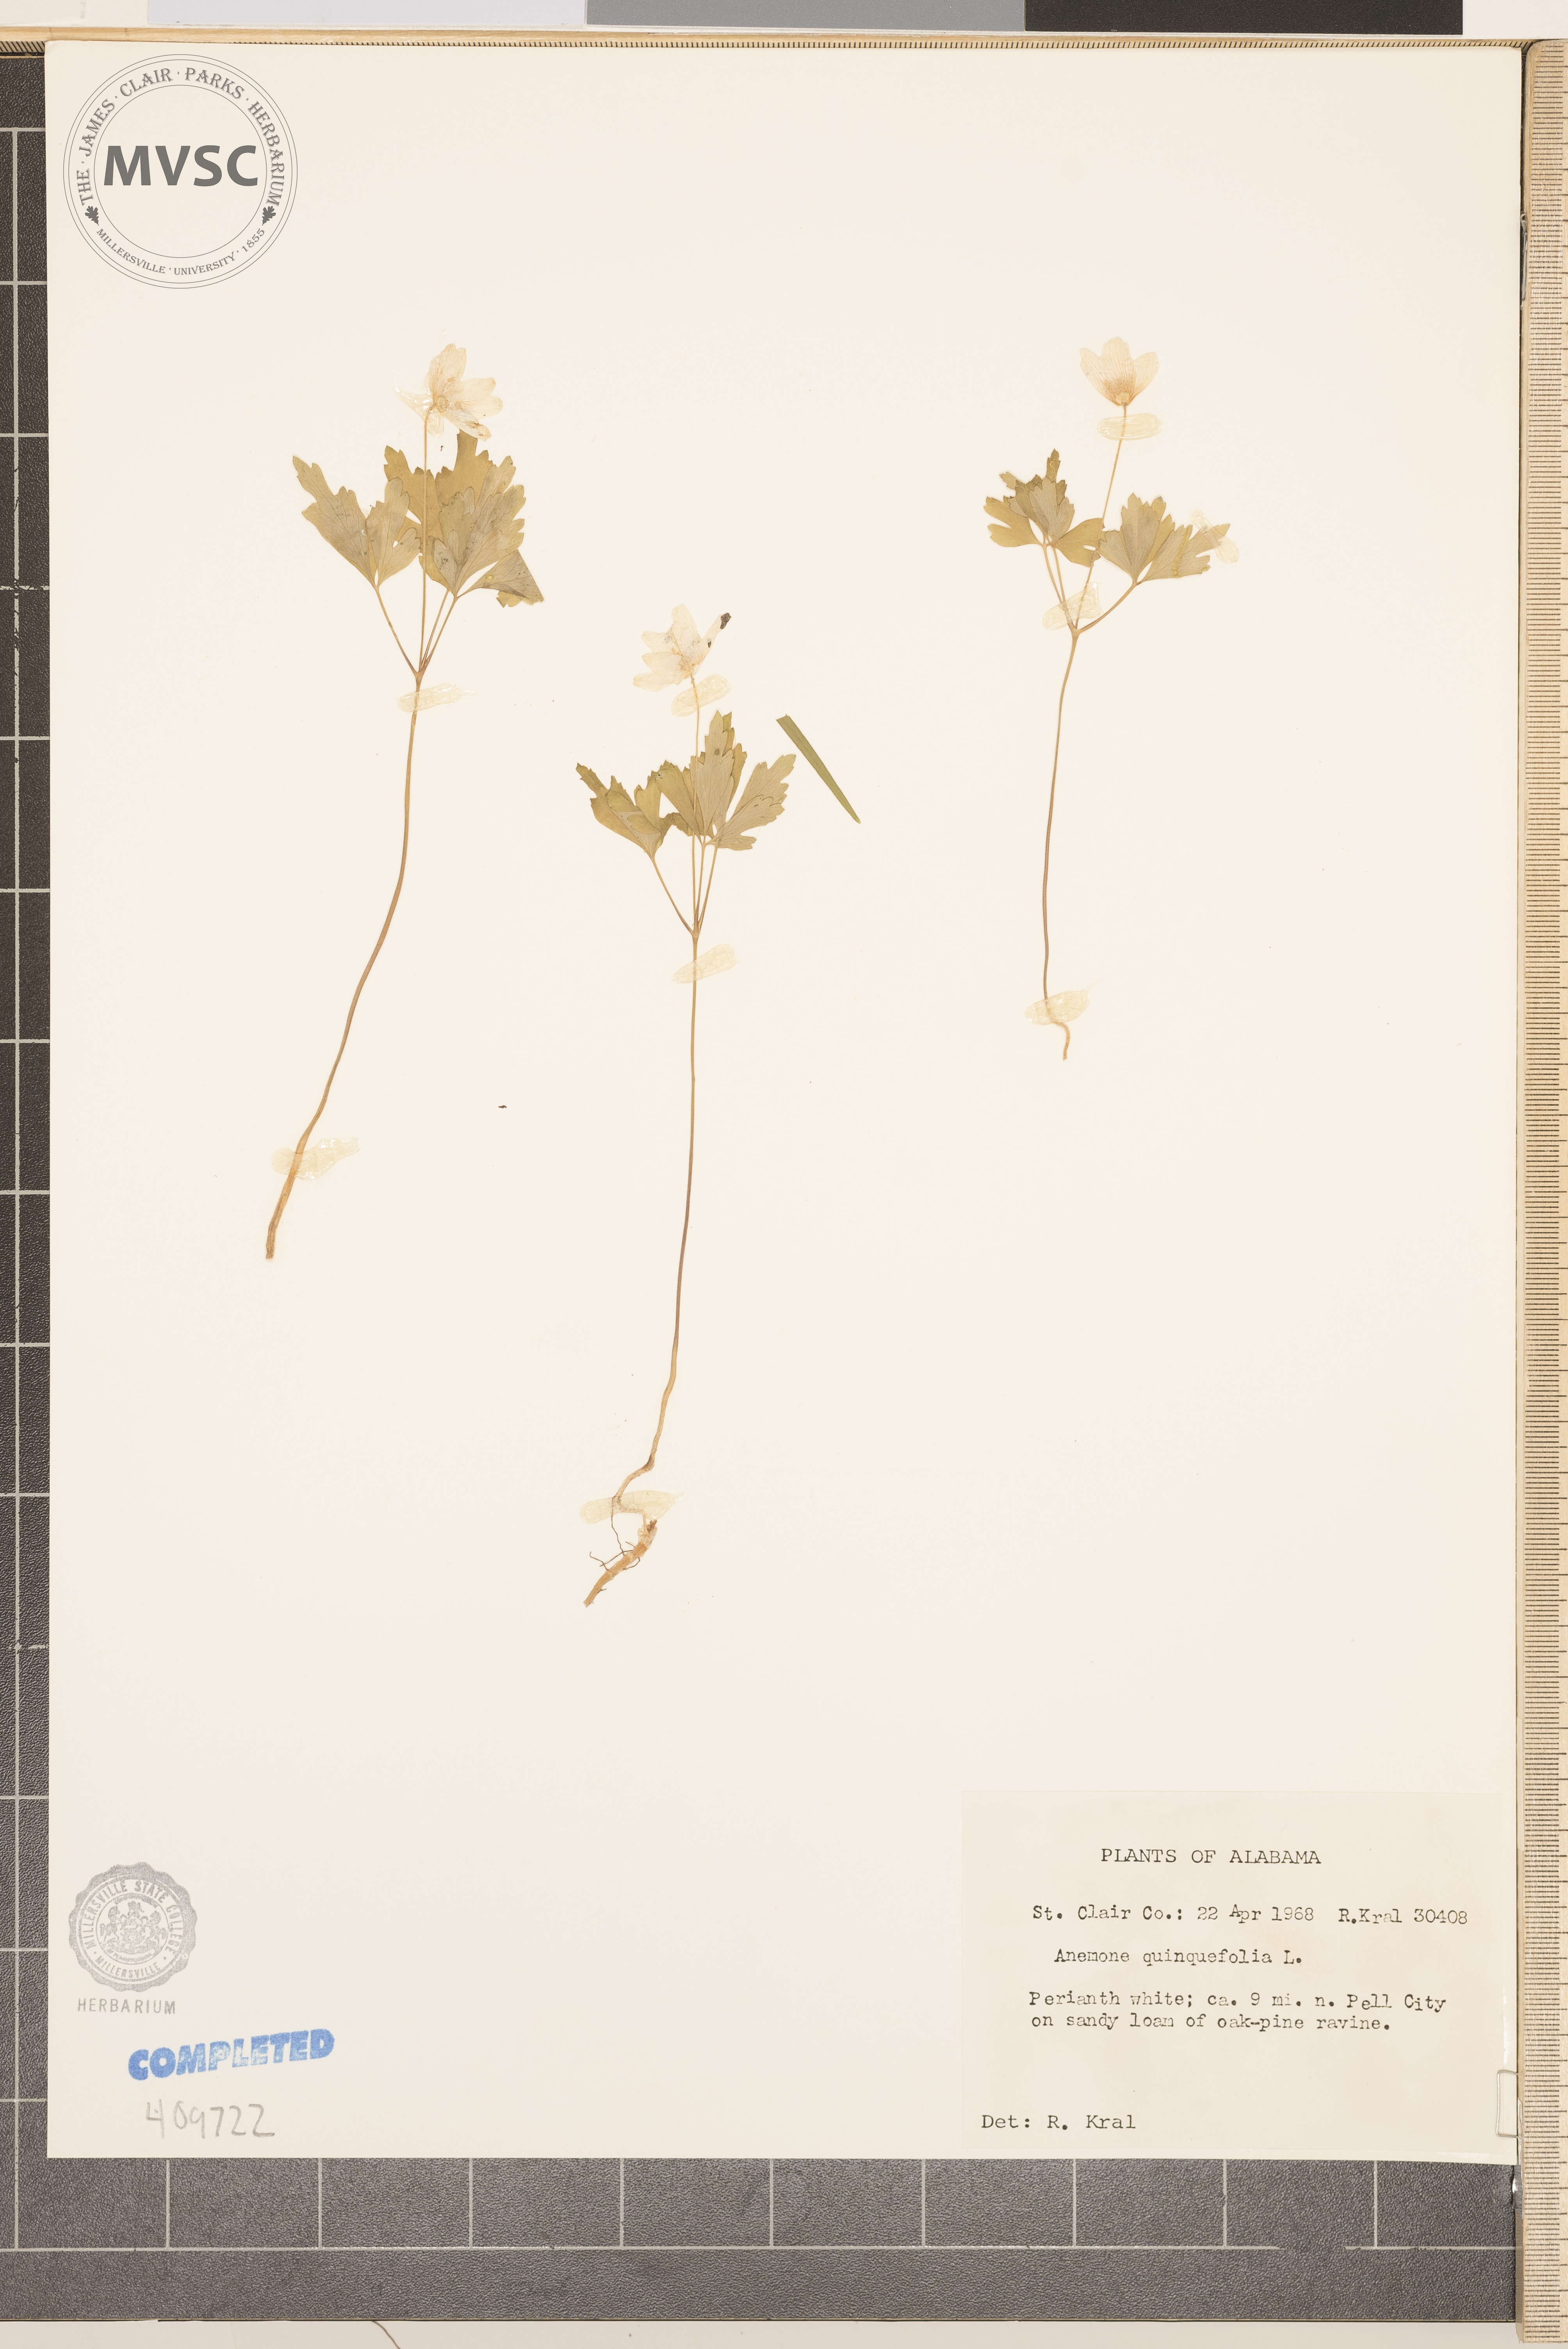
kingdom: Plantae
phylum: Tracheophyta
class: Magnoliopsida
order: Ranunculales
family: Ranunculaceae
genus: Anemone
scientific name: Anemone quinquefolia
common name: Wood anemone
